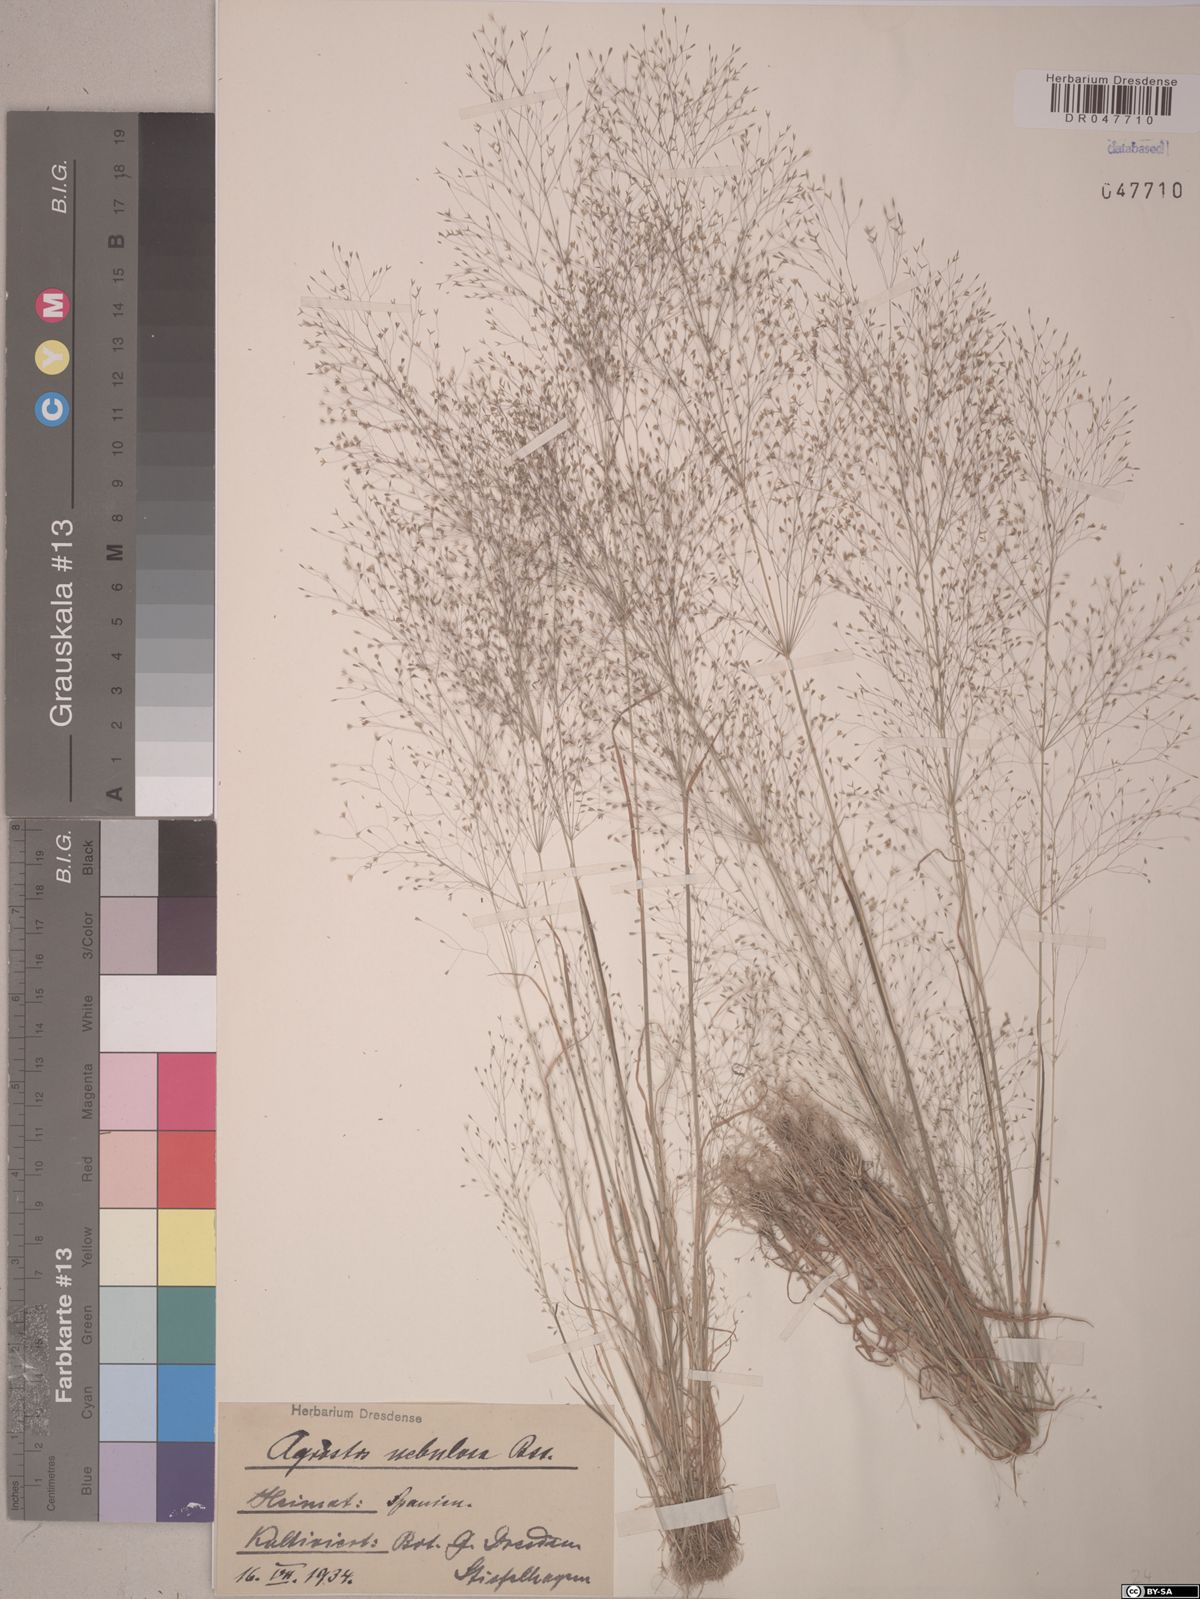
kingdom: Plantae
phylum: Tracheophyta
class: Liliopsida
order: Poales
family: Poaceae
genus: Agrostis
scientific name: Agrostis nebulosa
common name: Cloud grass
